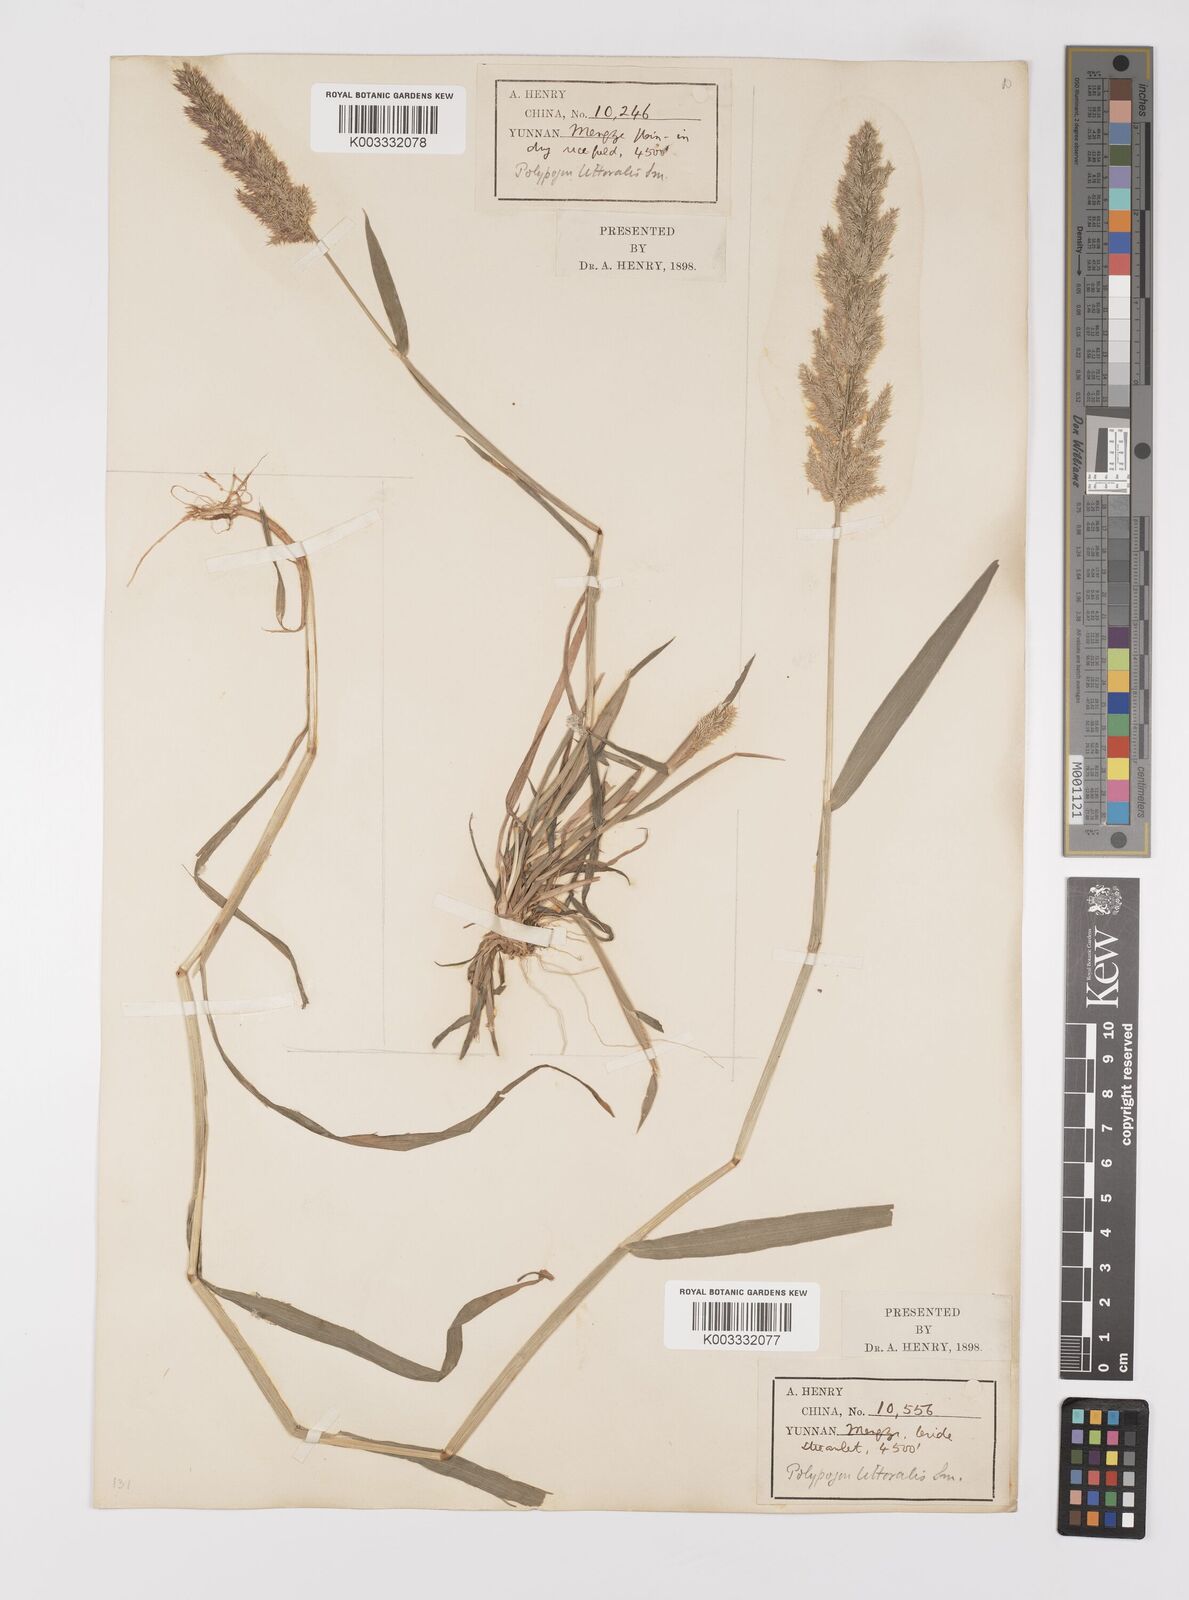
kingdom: Plantae
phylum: Tracheophyta
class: Liliopsida
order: Poales
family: Poaceae
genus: Polypogon
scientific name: Polypogon fugax
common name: Asia minor bluegrass
